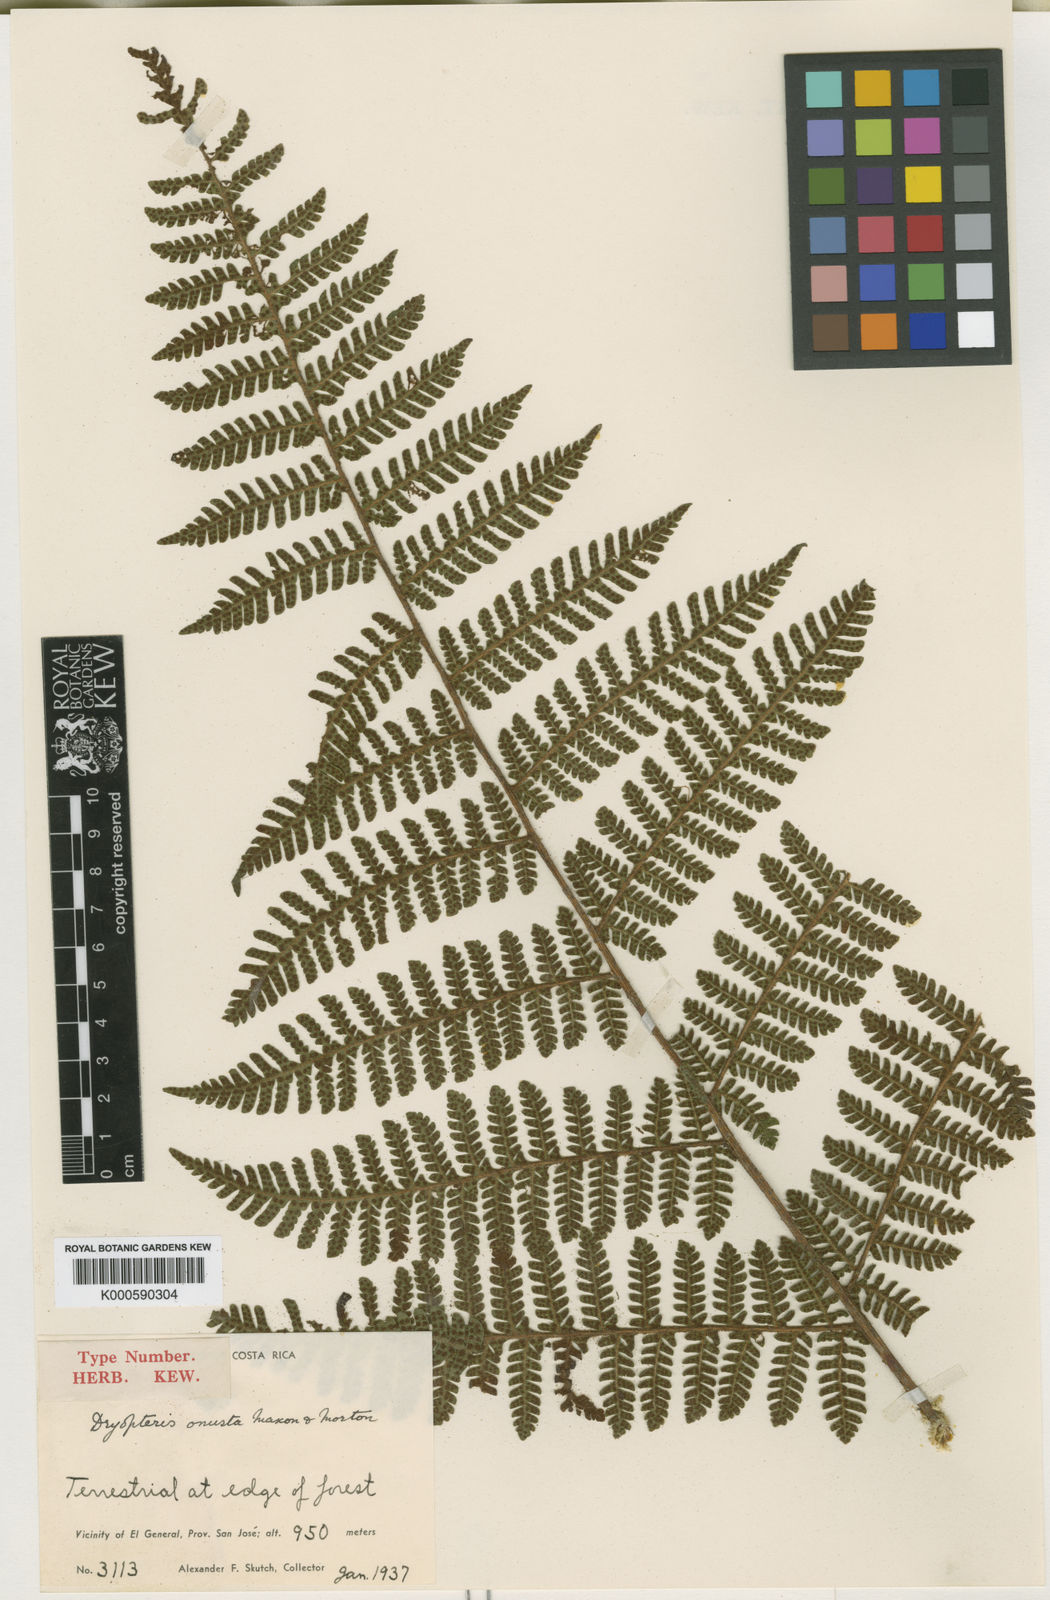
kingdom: Plantae
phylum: Tracheophyta
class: Polypodiopsida
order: Polypodiales
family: Dryopteridaceae
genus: Ctenitis
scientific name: Ctenitis
